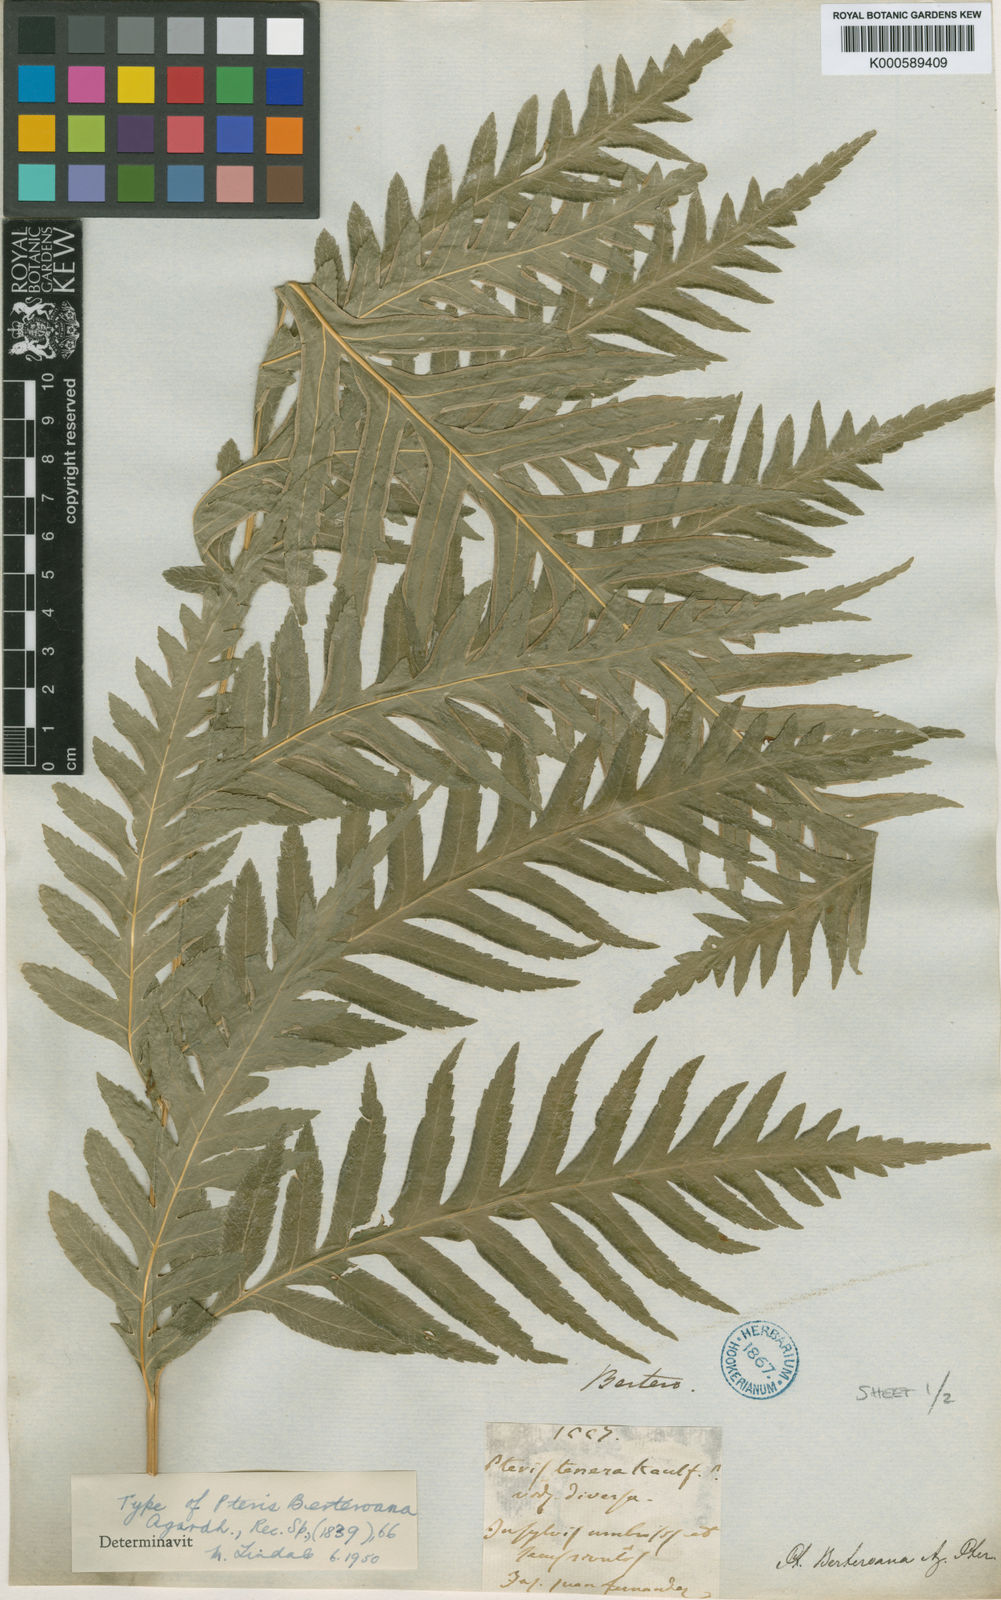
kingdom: Plantae
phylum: Tracheophyta
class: Polypodiopsida
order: Polypodiales
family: Pteridaceae
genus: Pteris
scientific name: Pteris berteroana
